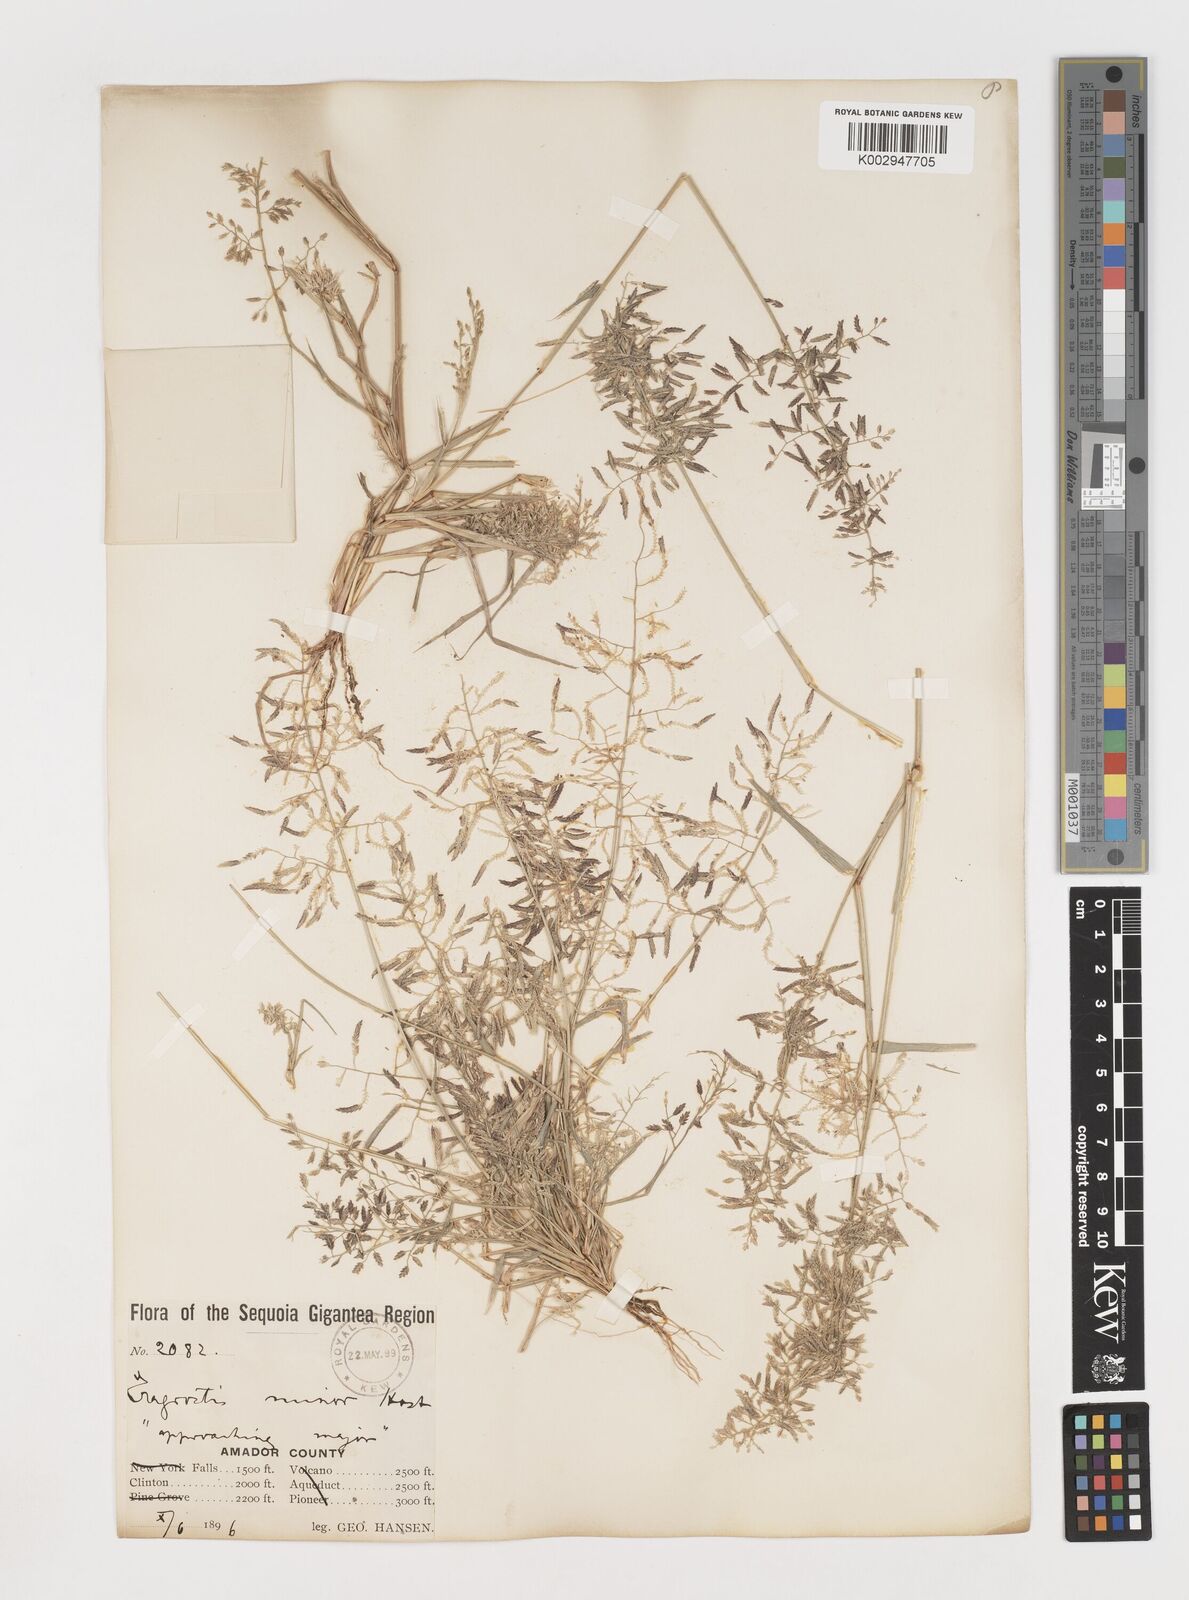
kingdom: Plantae
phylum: Tracheophyta
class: Liliopsida
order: Poales
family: Poaceae
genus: Eragrostis
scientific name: Eragrostis lutescens
